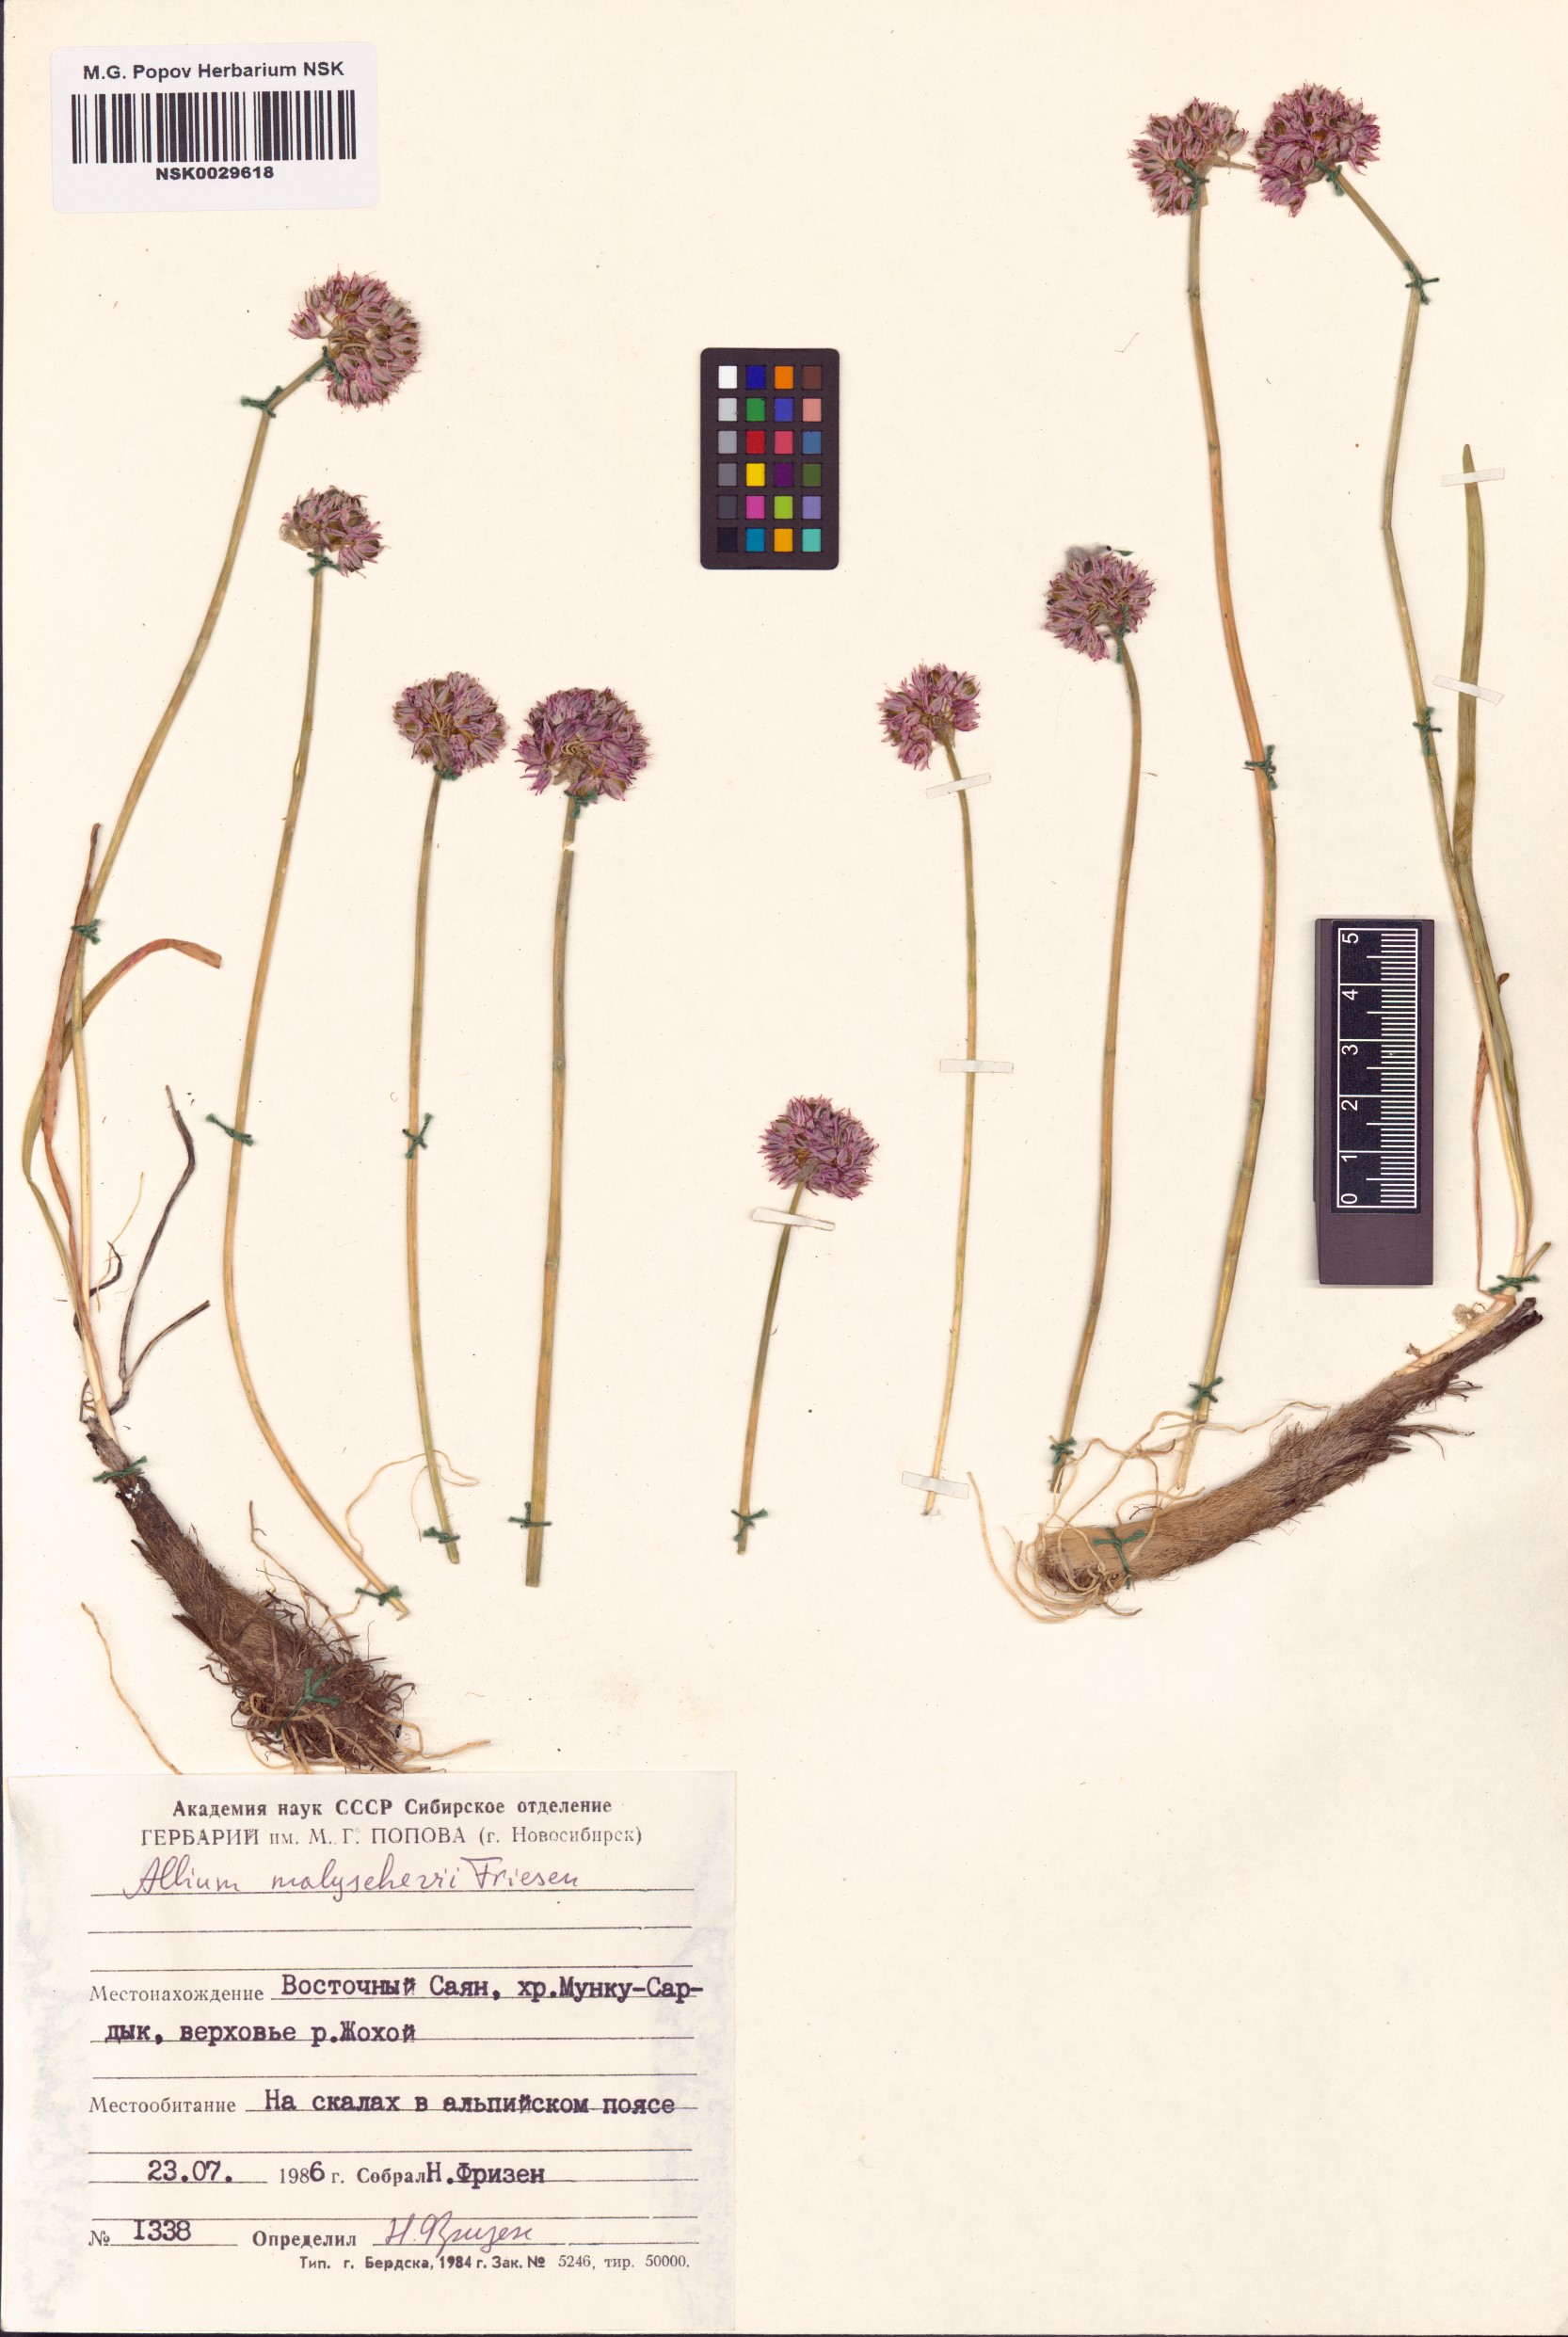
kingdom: Plantae
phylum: Tracheophyta
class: Liliopsida
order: Asparagales
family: Amaryllidaceae
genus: Allium
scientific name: Allium malyschevii
